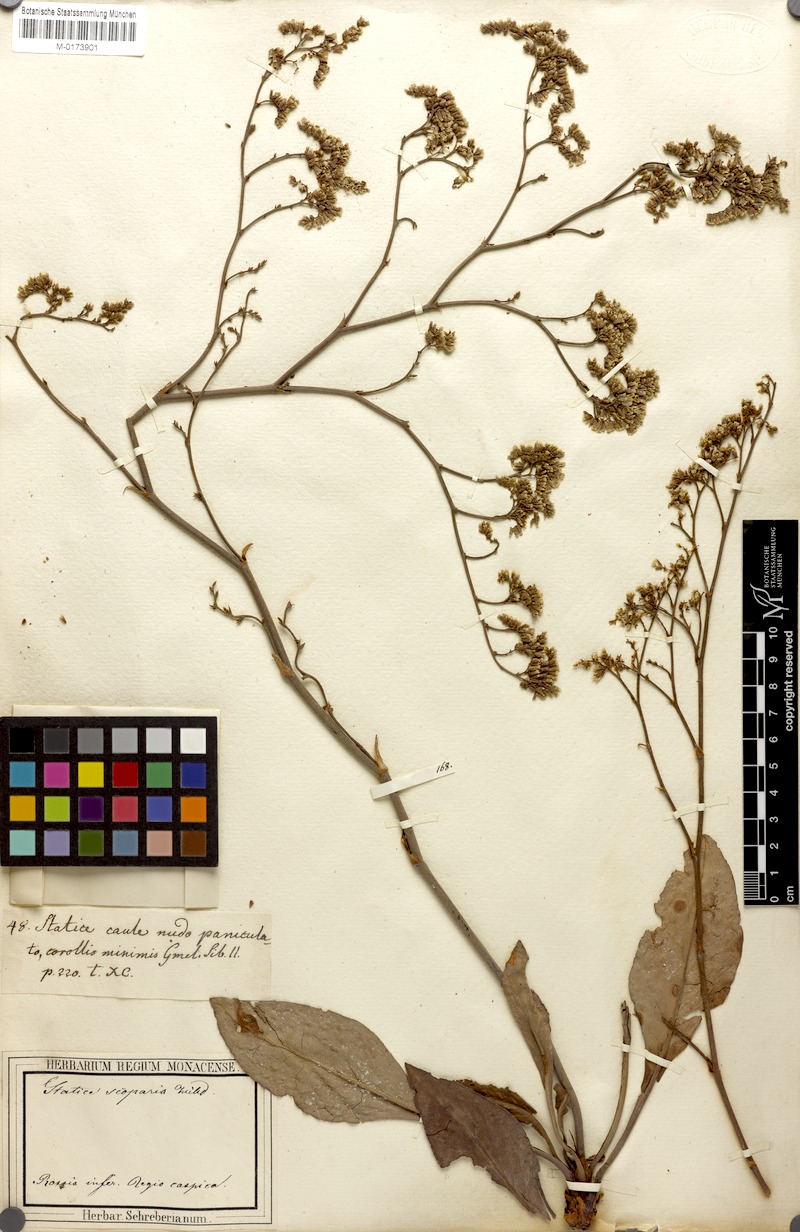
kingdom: Plantae
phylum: Tracheophyta
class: Magnoliopsida
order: Caryophyllales
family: Plumbaginaceae
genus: Limonium
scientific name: Limonium gmelini
